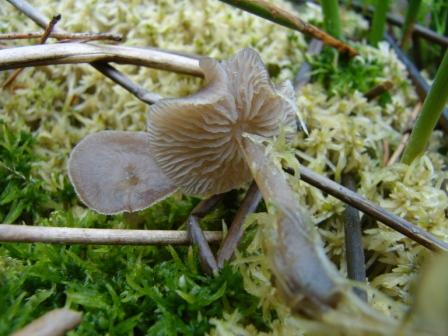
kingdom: Fungi
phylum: Basidiomycota
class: Agaricomycetes
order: Agaricales
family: Lyophyllaceae
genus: Sphagnurus
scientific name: Sphagnurus paluster
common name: tørvemos-gråblad
